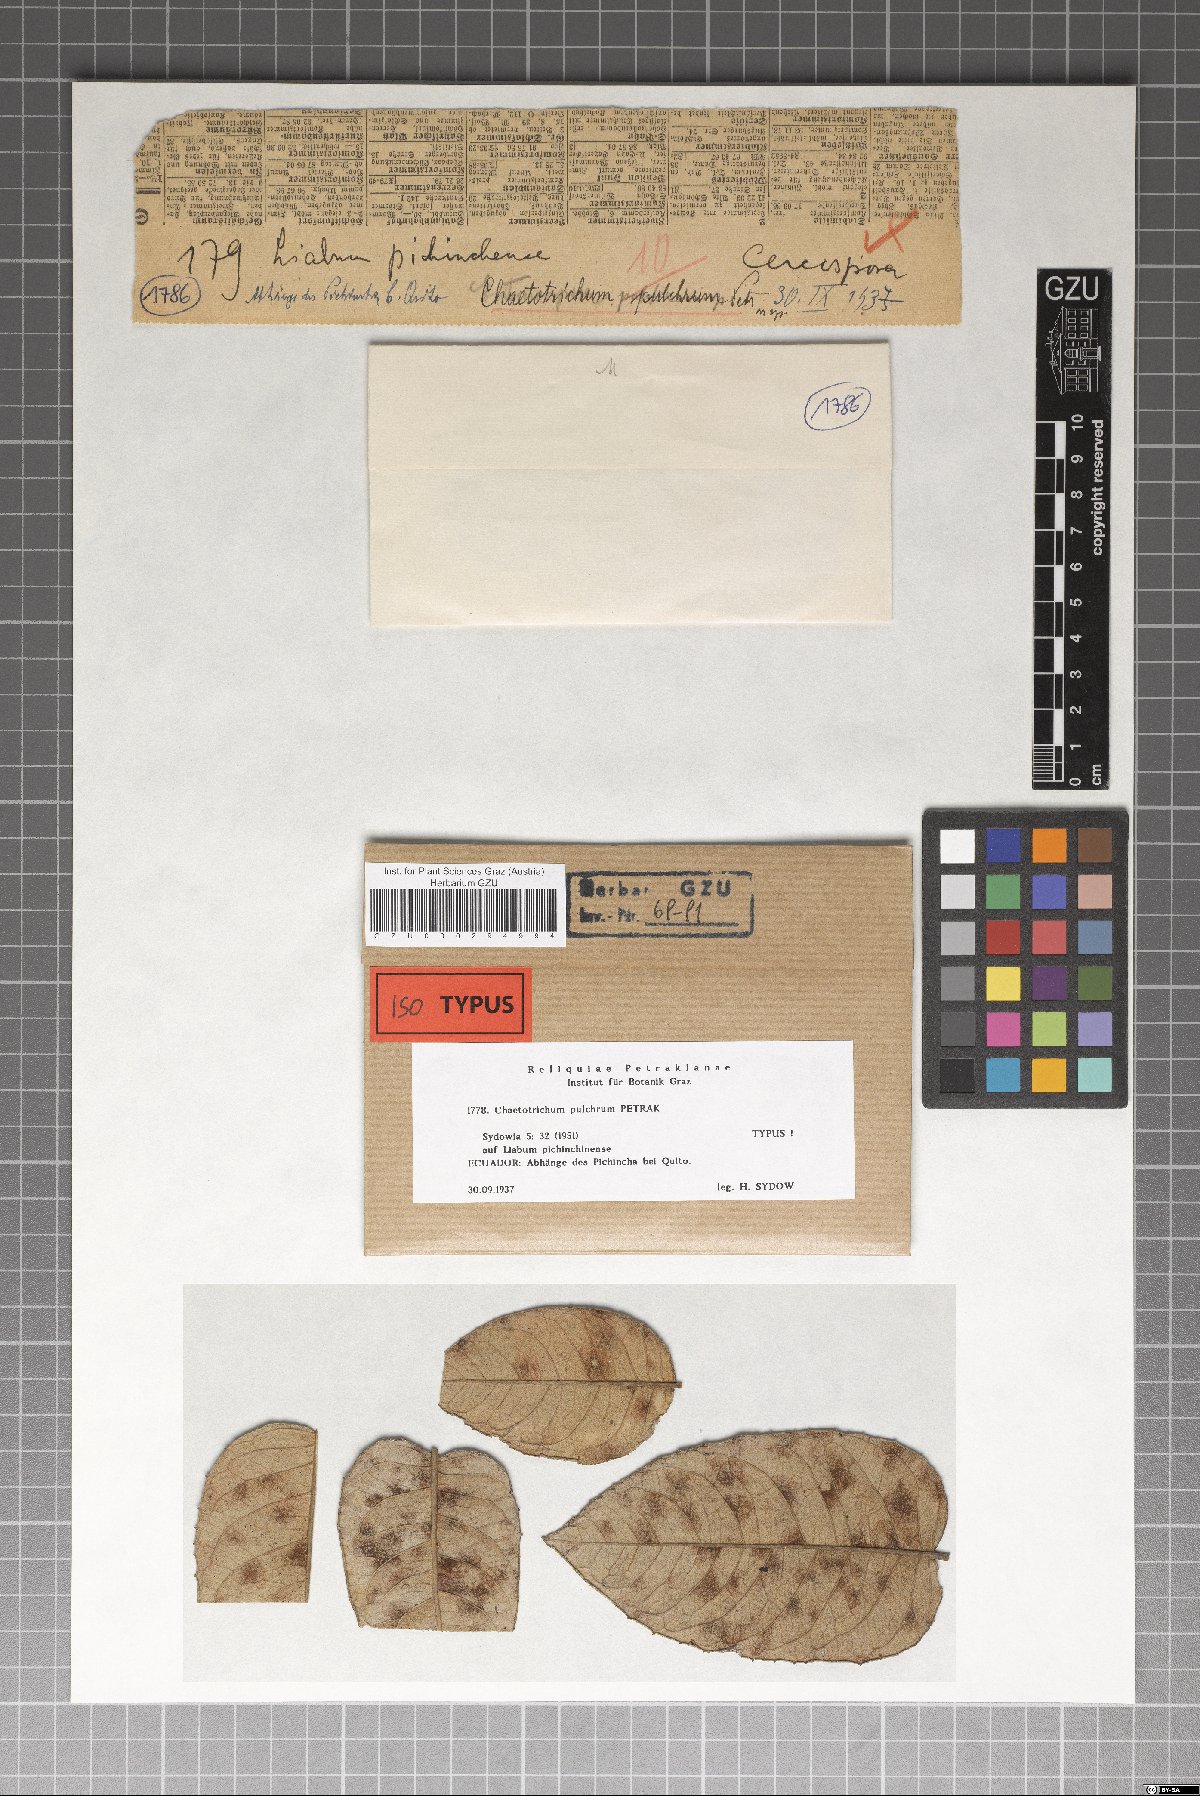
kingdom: Fungi
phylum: Ascomycota
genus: Chaetotrichum
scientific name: Chaetotrichum pulchrum
